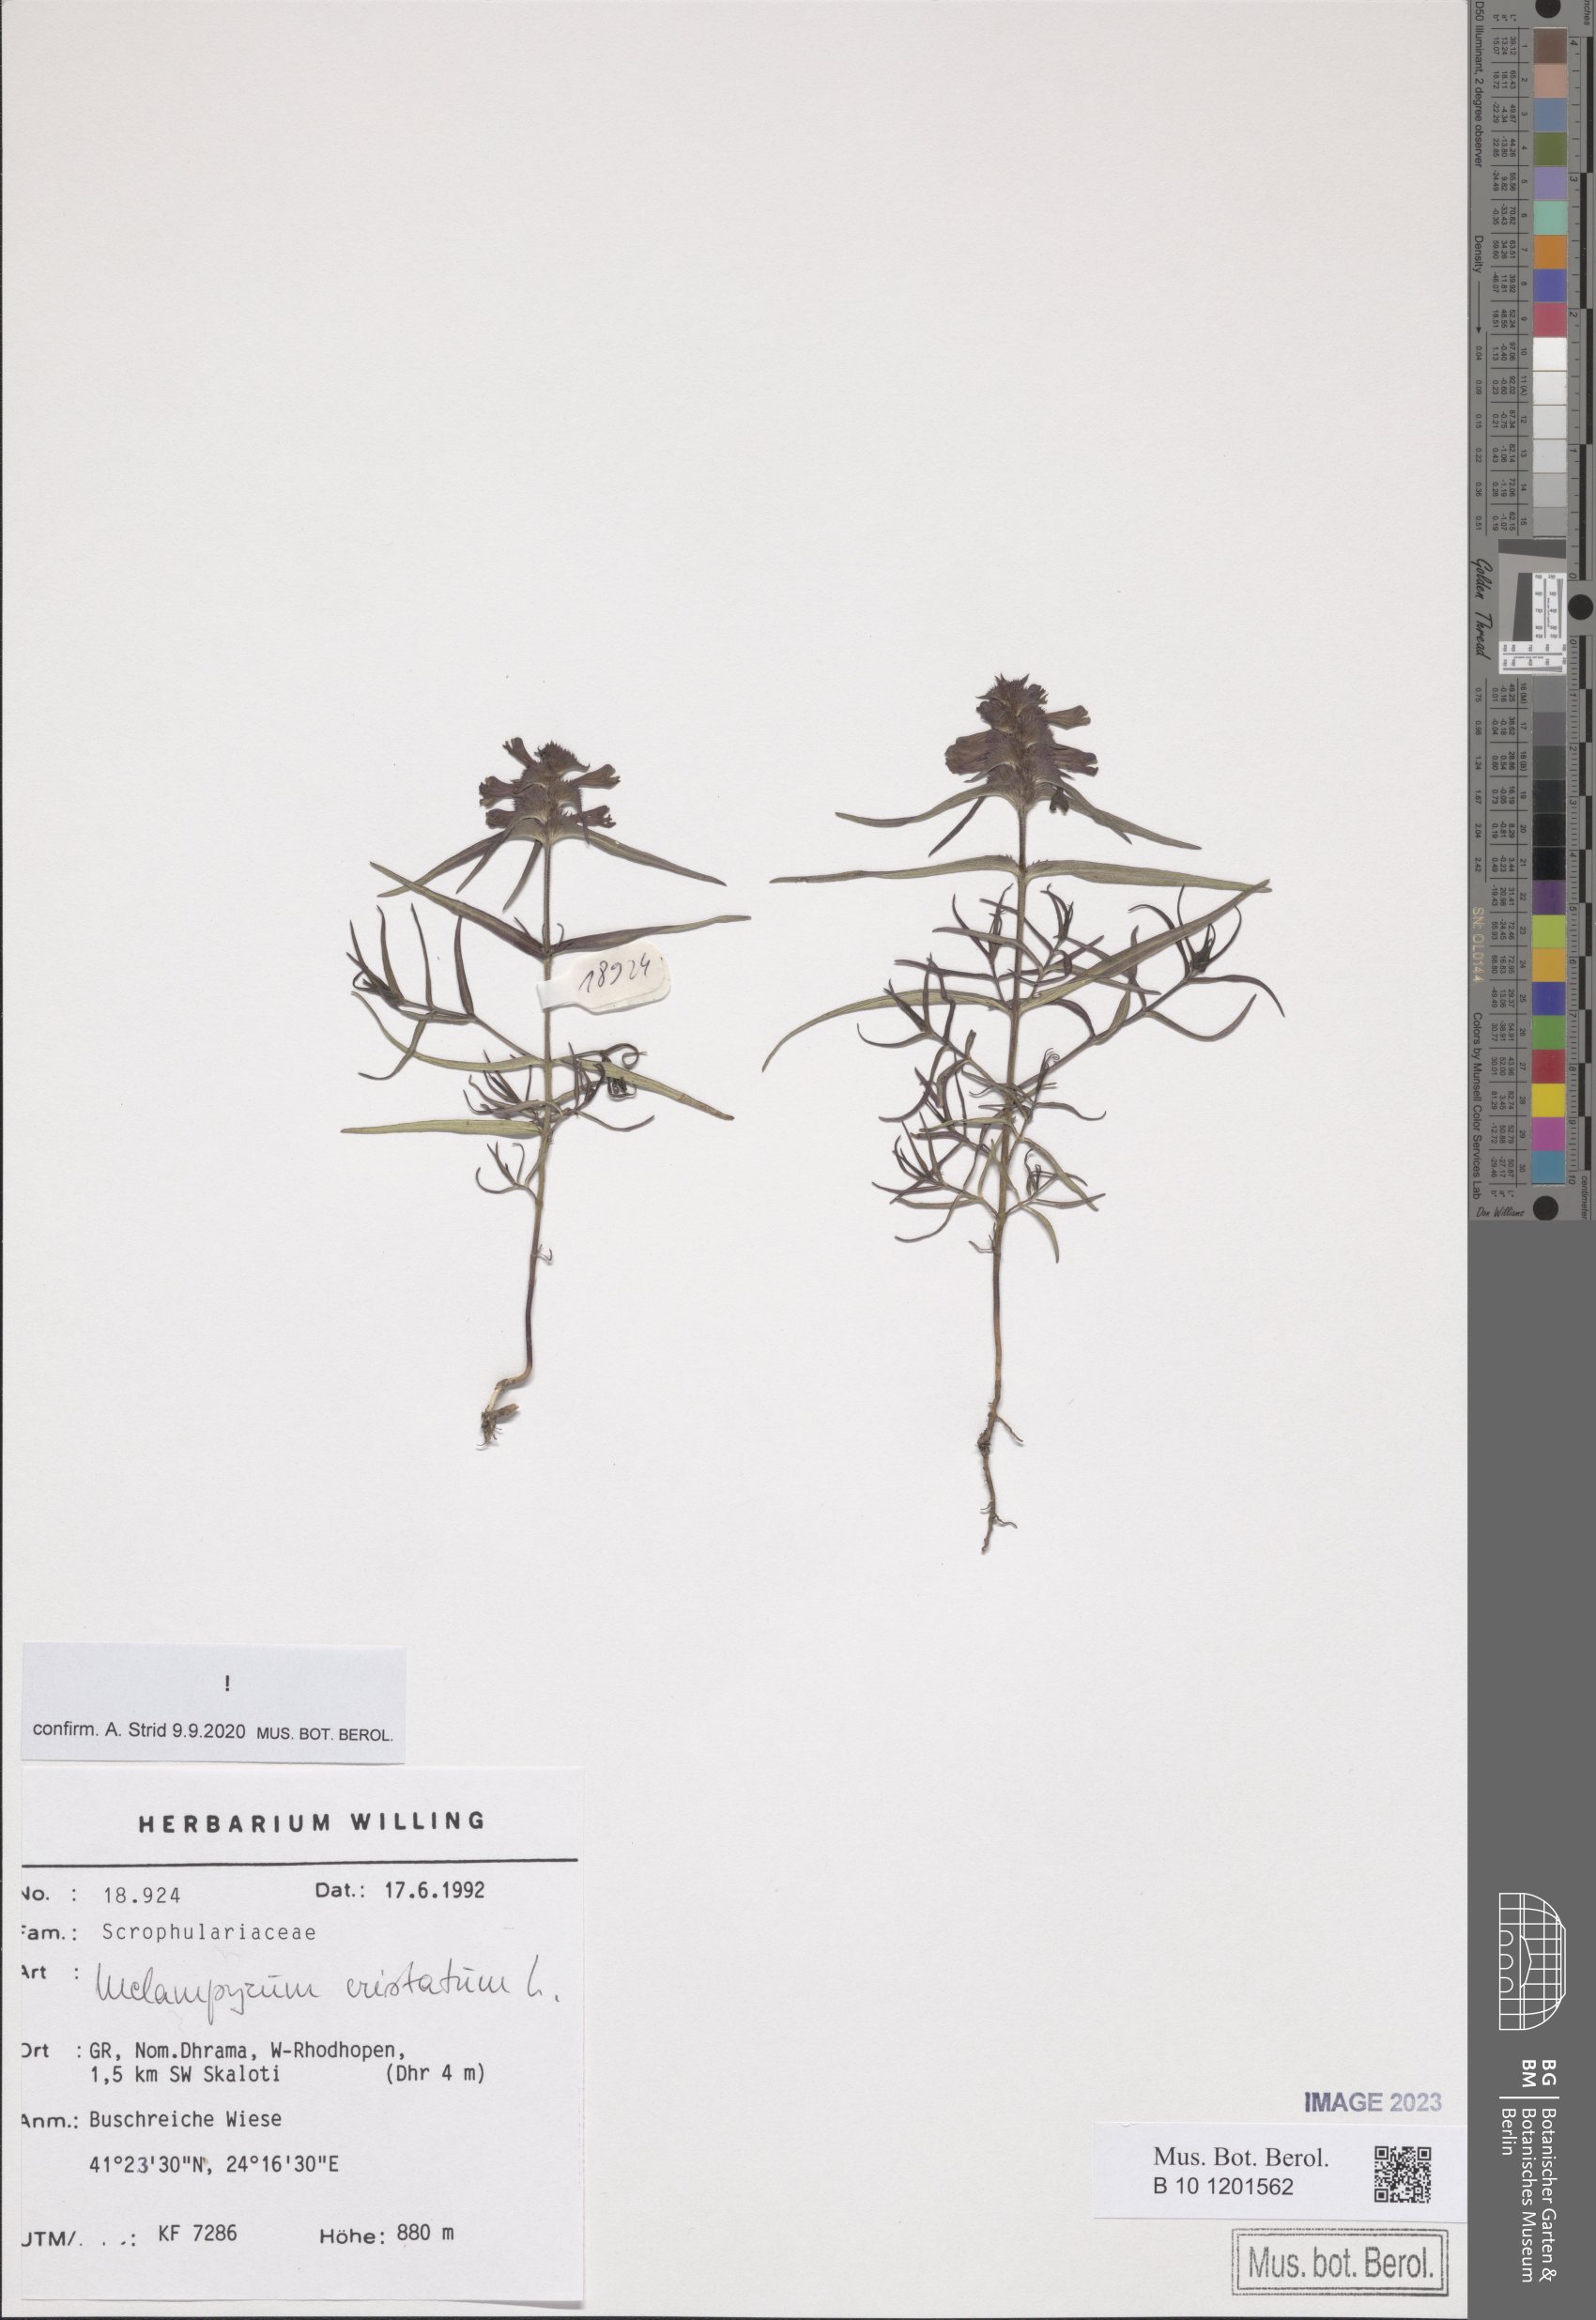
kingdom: Plantae
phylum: Tracheophyta
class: Magnoliopsida
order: Lamiales
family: Orobanchaceae
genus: Melampyrum
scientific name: Melampyrum cristatum
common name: Crested cow-wheat
